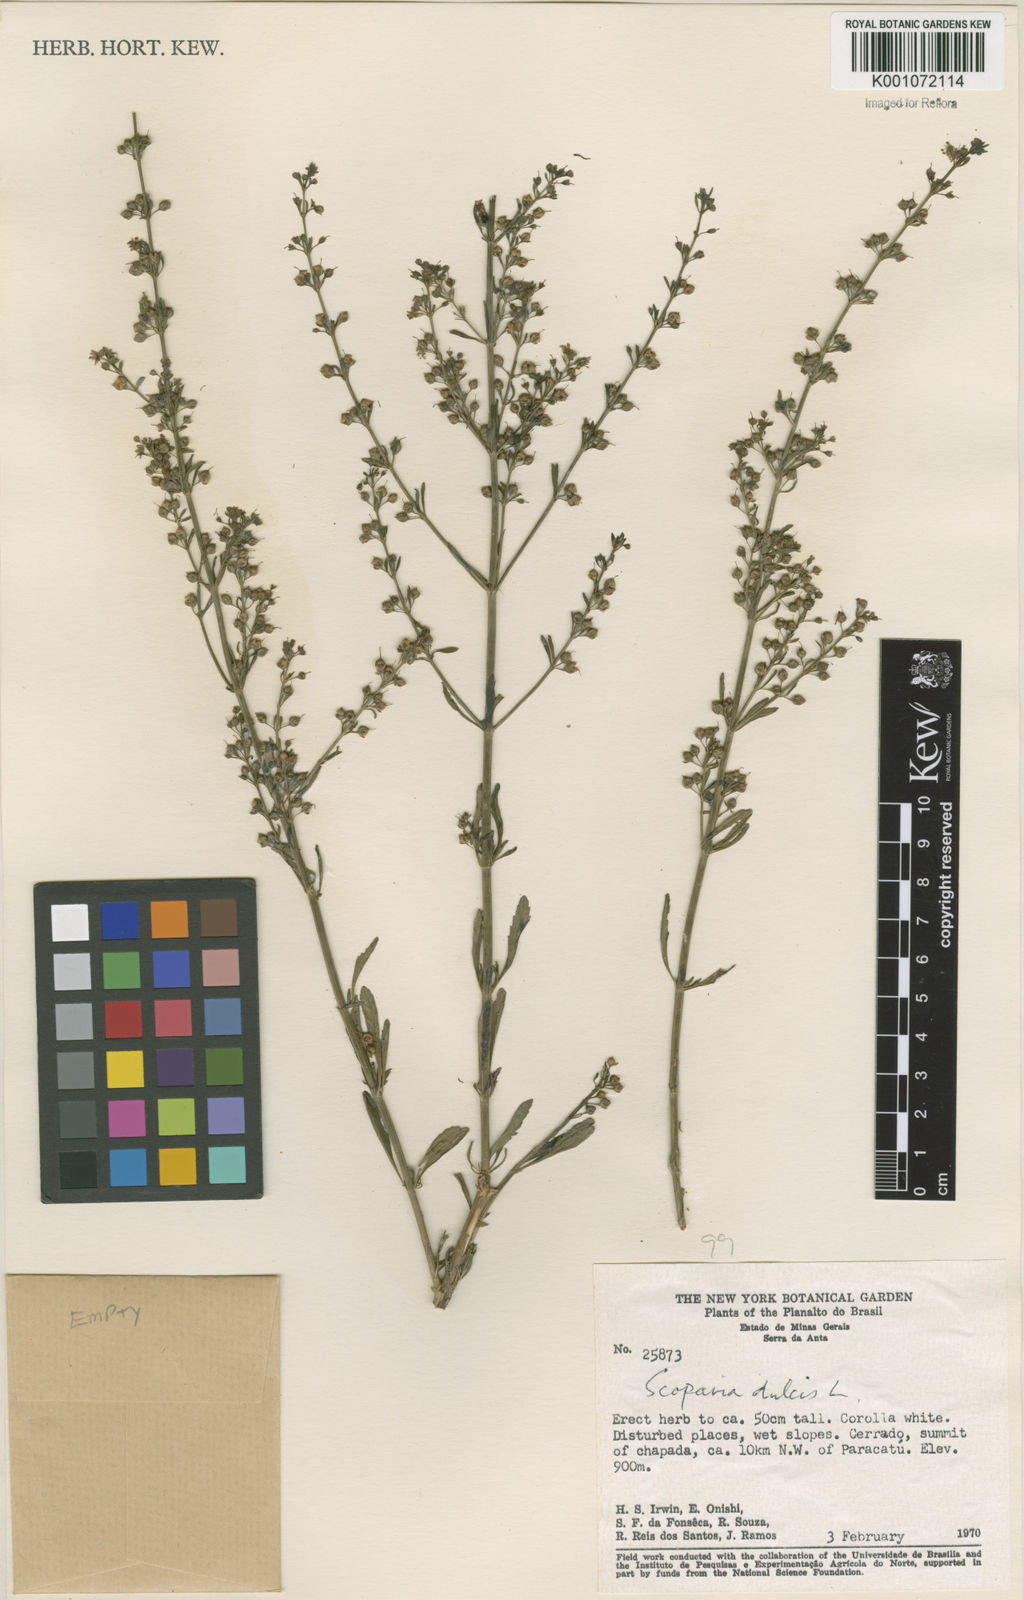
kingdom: Plantae
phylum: Tracheophyta
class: Magnoliopsida
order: Lamiales
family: Plantaginaceae
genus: Scoparia
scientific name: Scoparia dulcis
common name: Scoparia-weed
